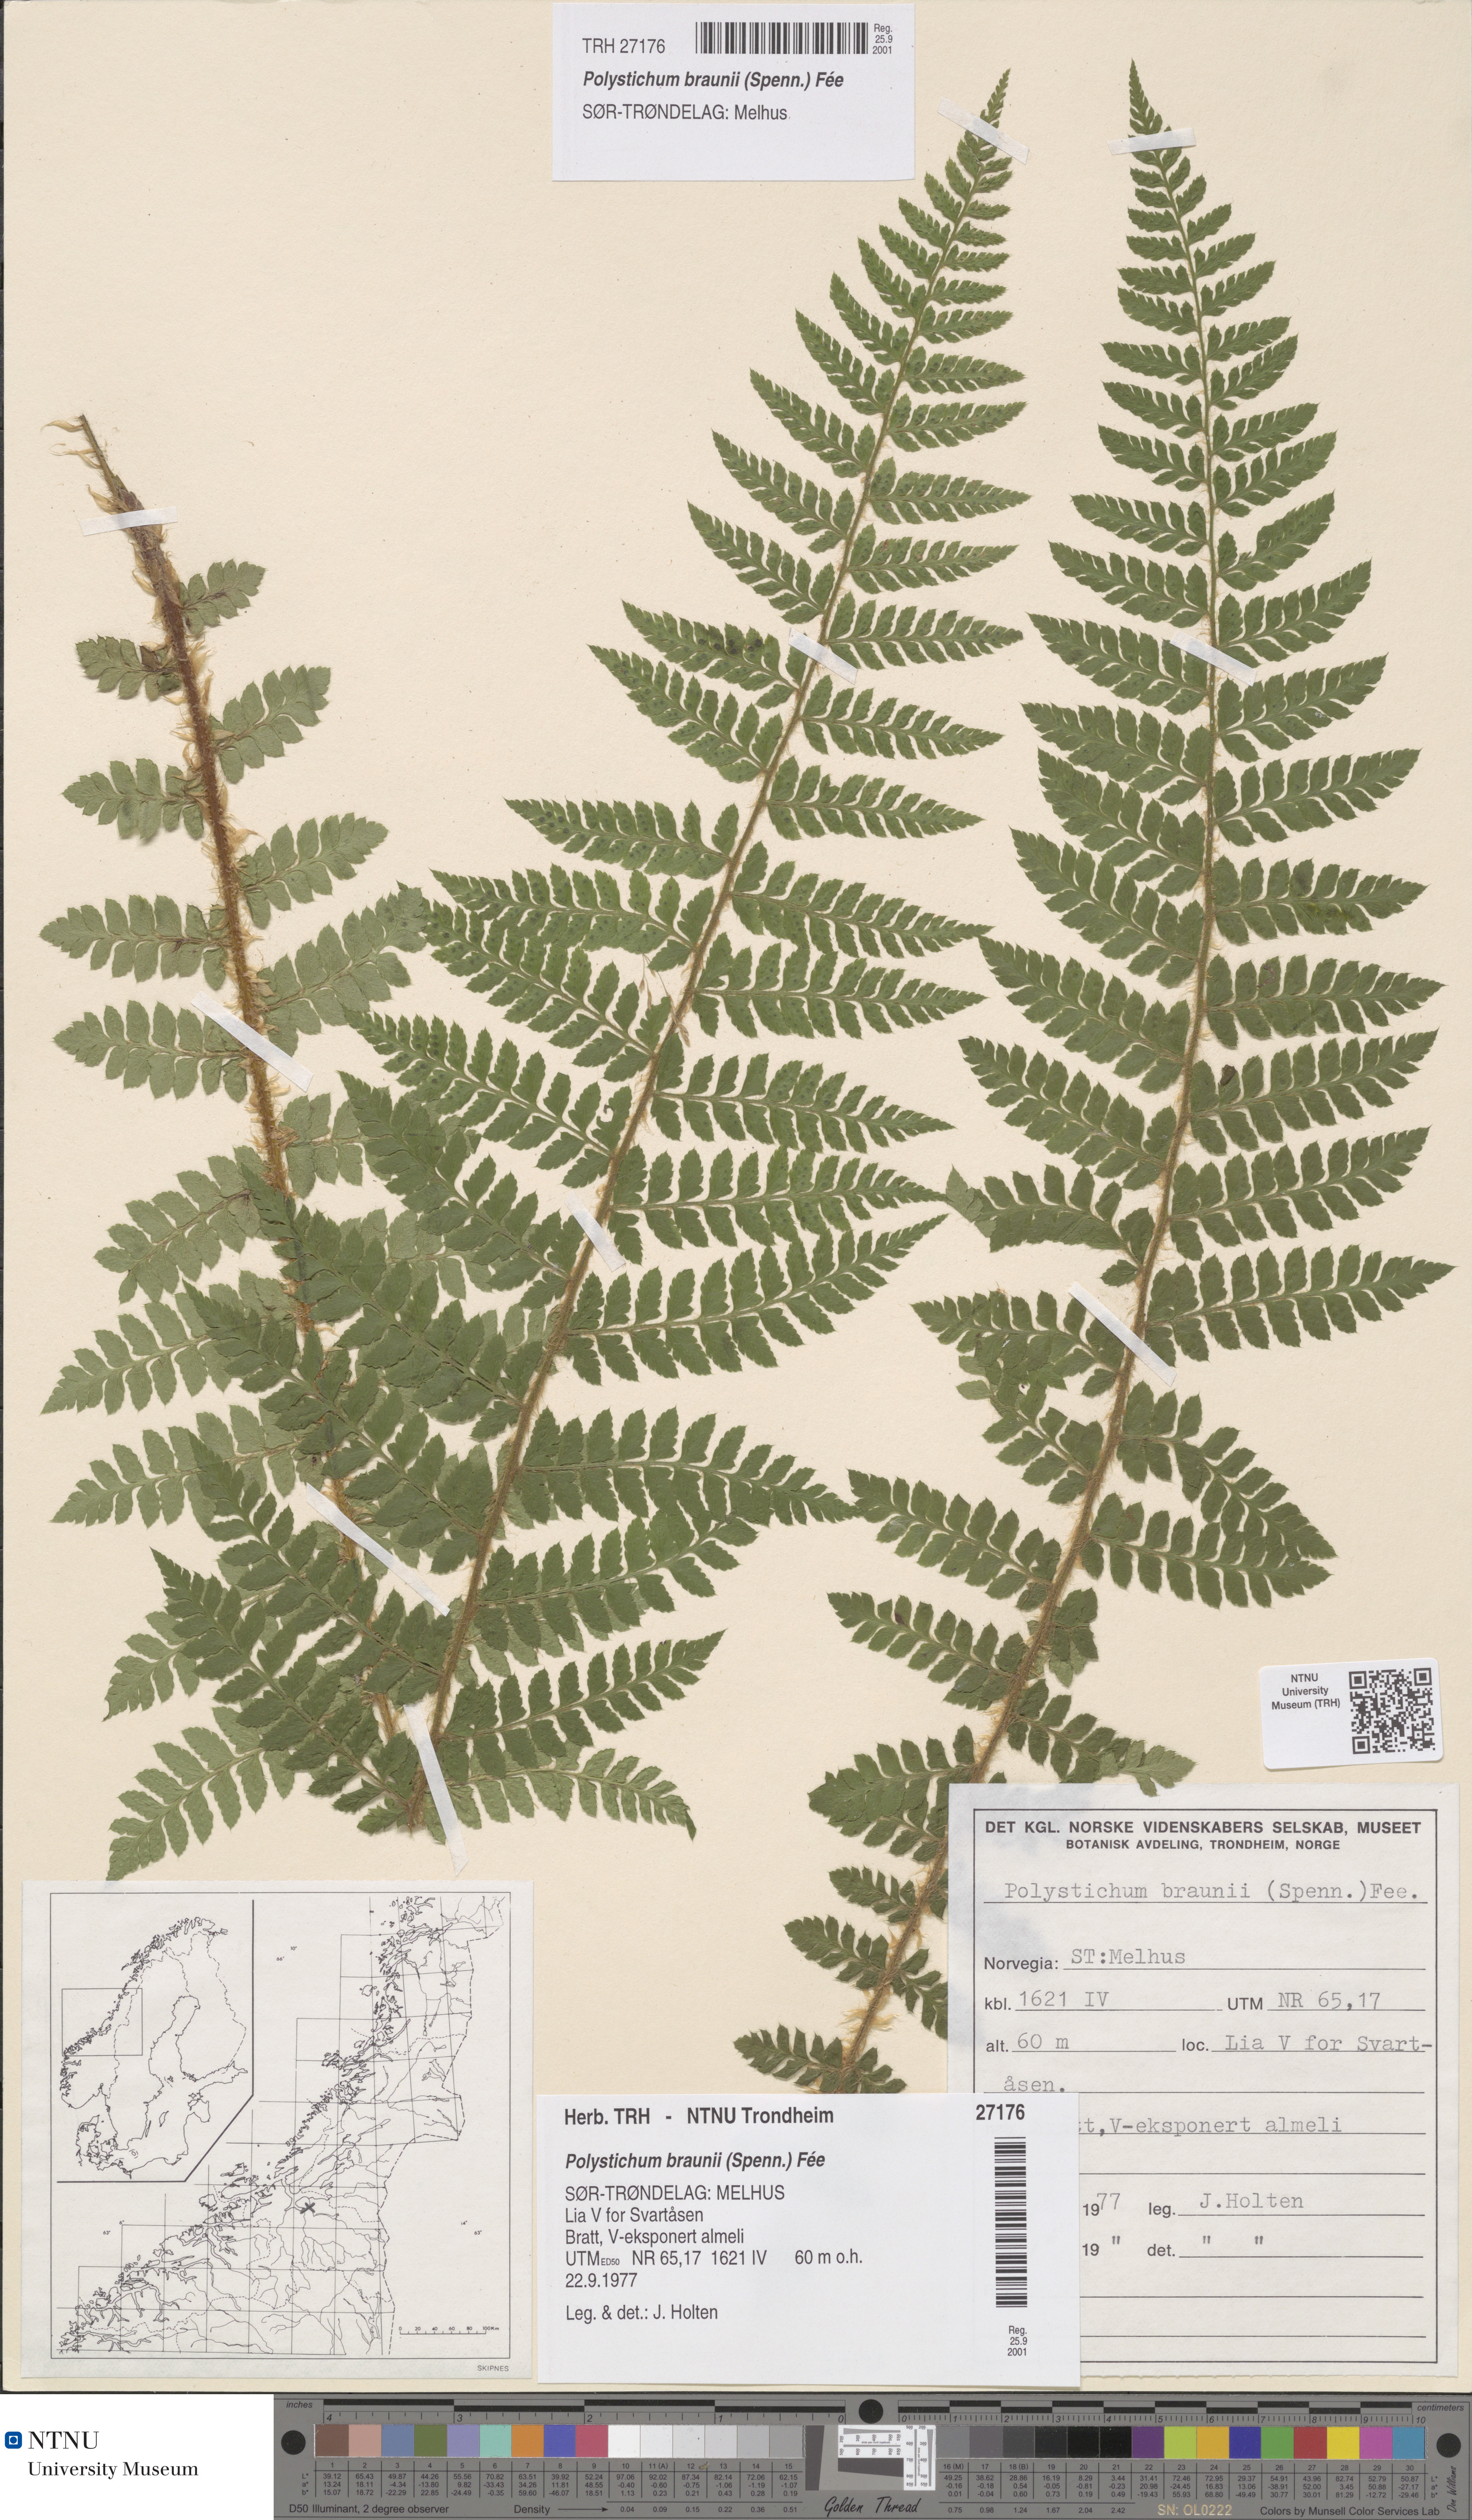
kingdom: Plantae
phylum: Tracheophyta
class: Polypodiopsida
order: Polypodiales
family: Dryopteridaceae
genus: Polystichum
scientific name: Polystichum braunii
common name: Braun's holly fern
